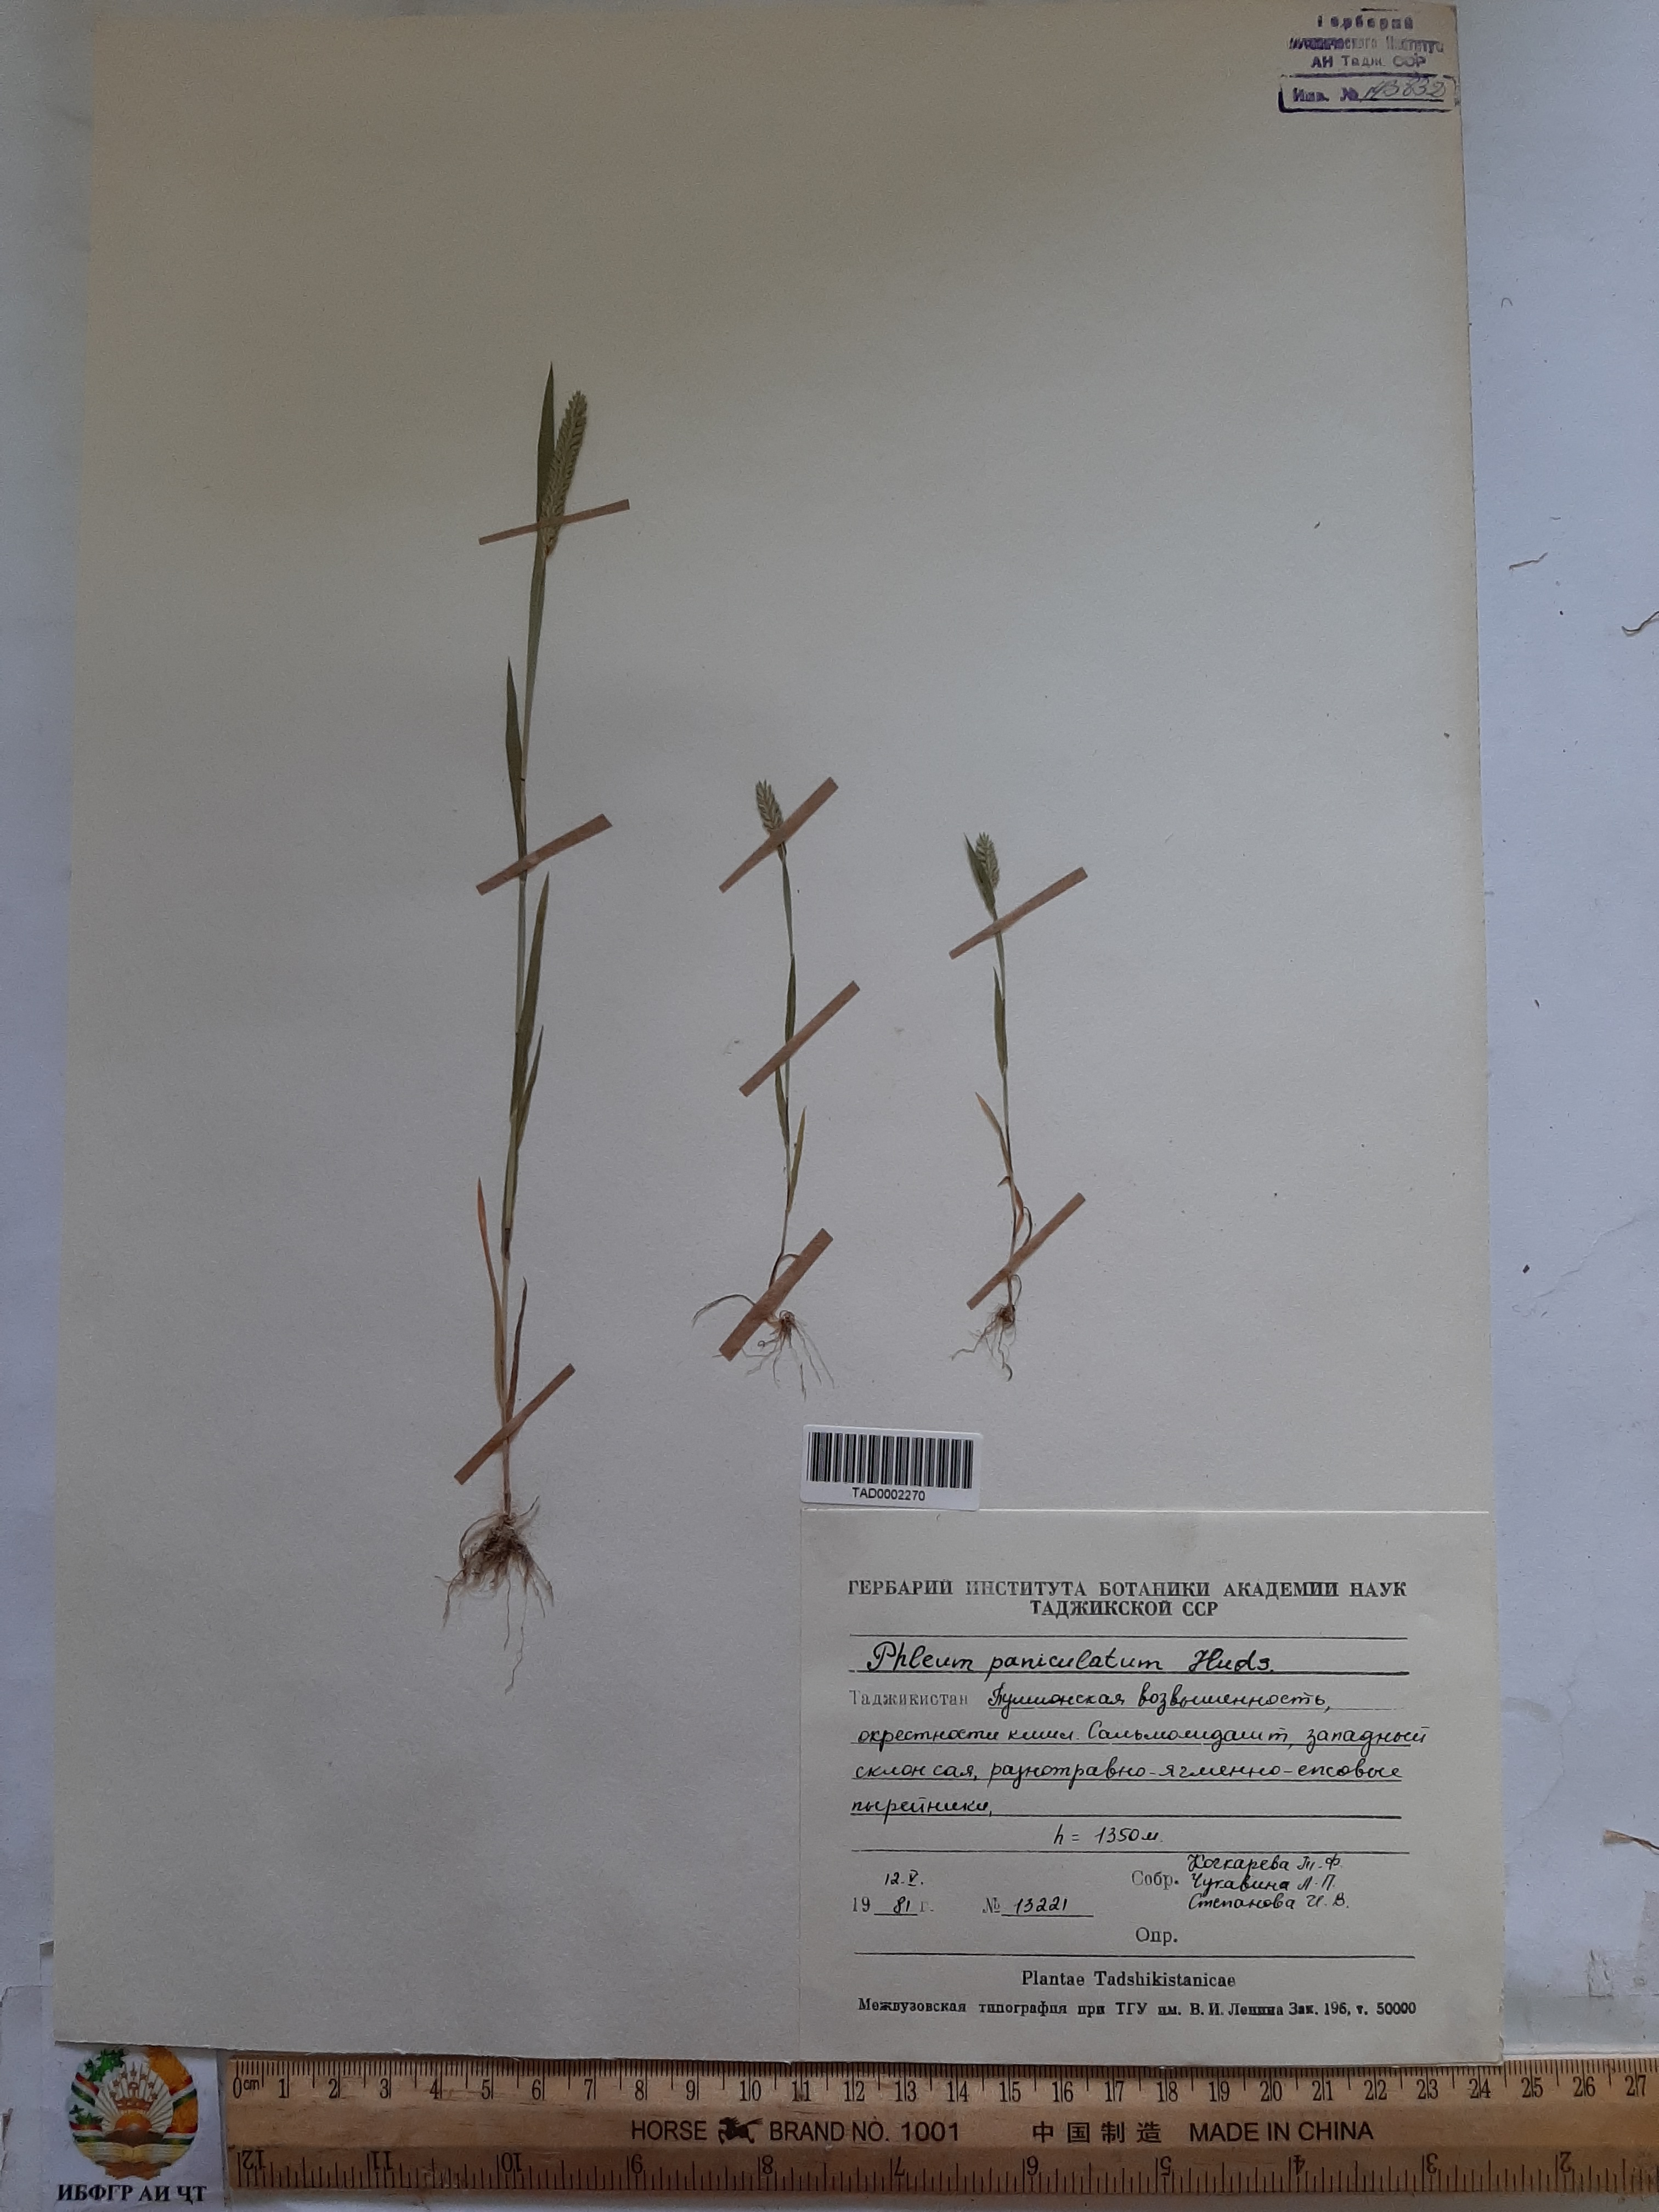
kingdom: Plantae
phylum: Tracheophyta
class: Liliopsida
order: Poales
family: Poaceae
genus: Phleum
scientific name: Phleum paniculatum
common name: British timothy
